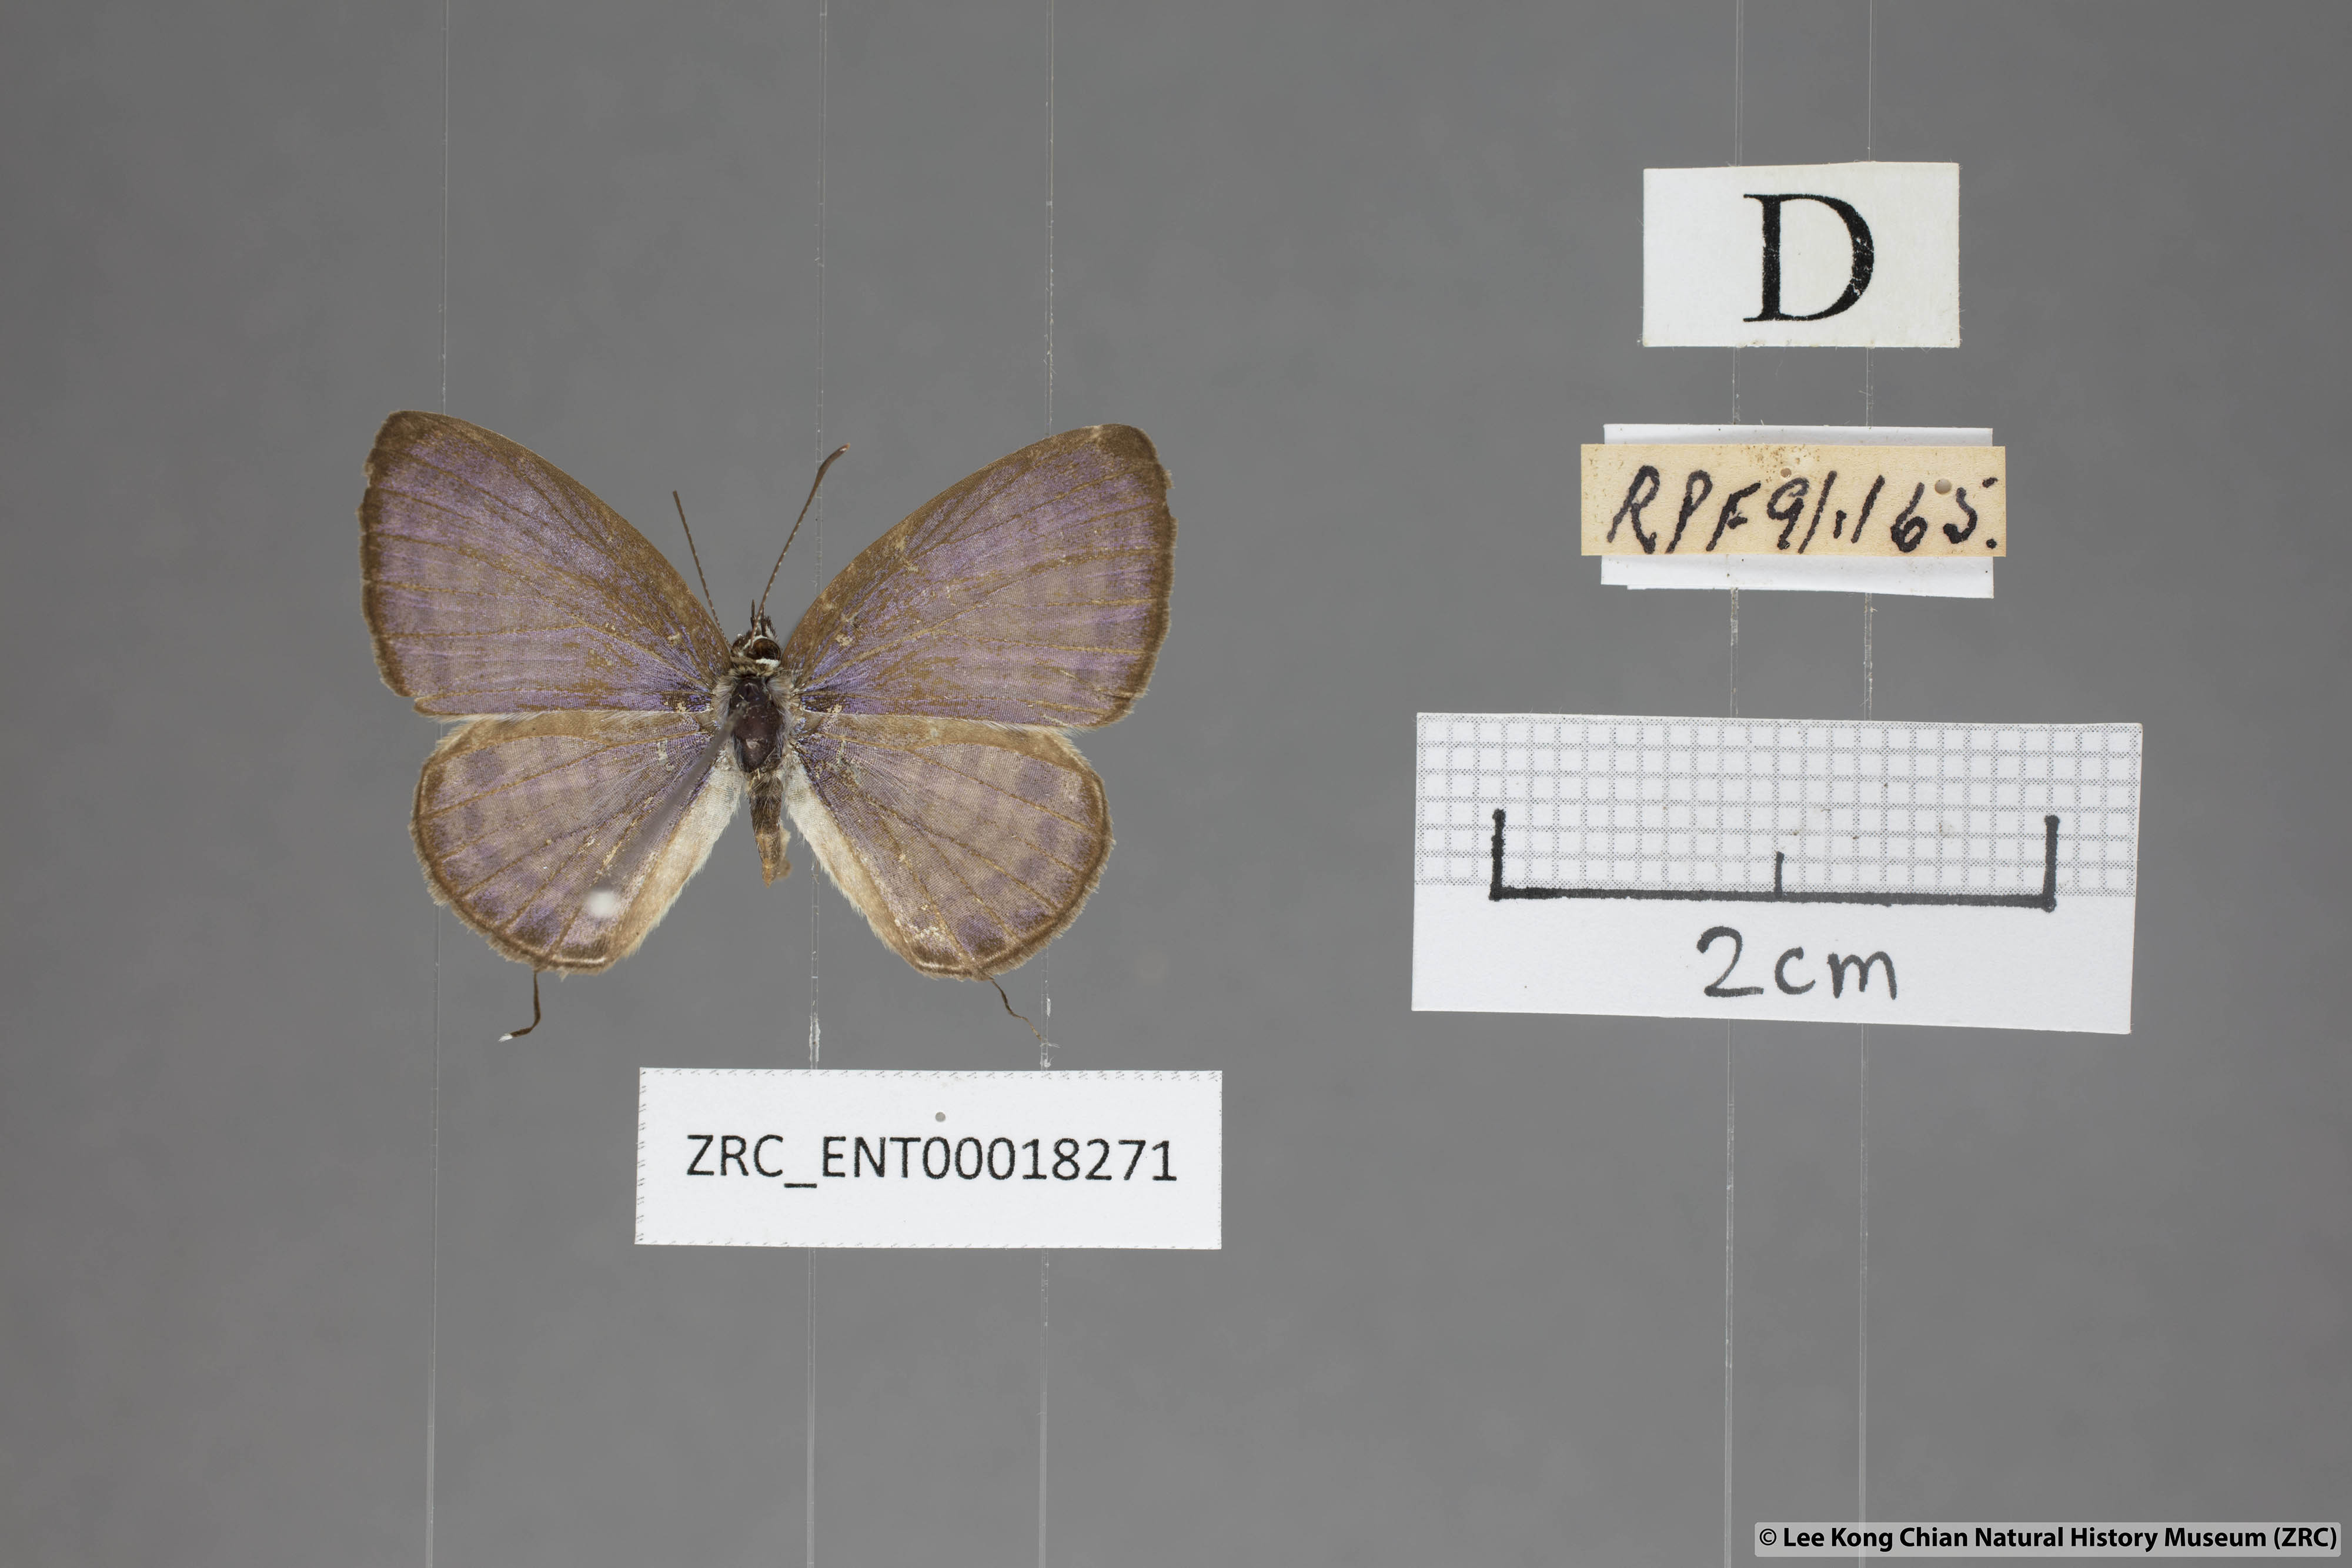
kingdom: Animalia
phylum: Arthropoda
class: Insecta
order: Lepidoptera
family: Lycaenidae
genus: Nacaduba
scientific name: Nacaduba angusta
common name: White four-line blue
